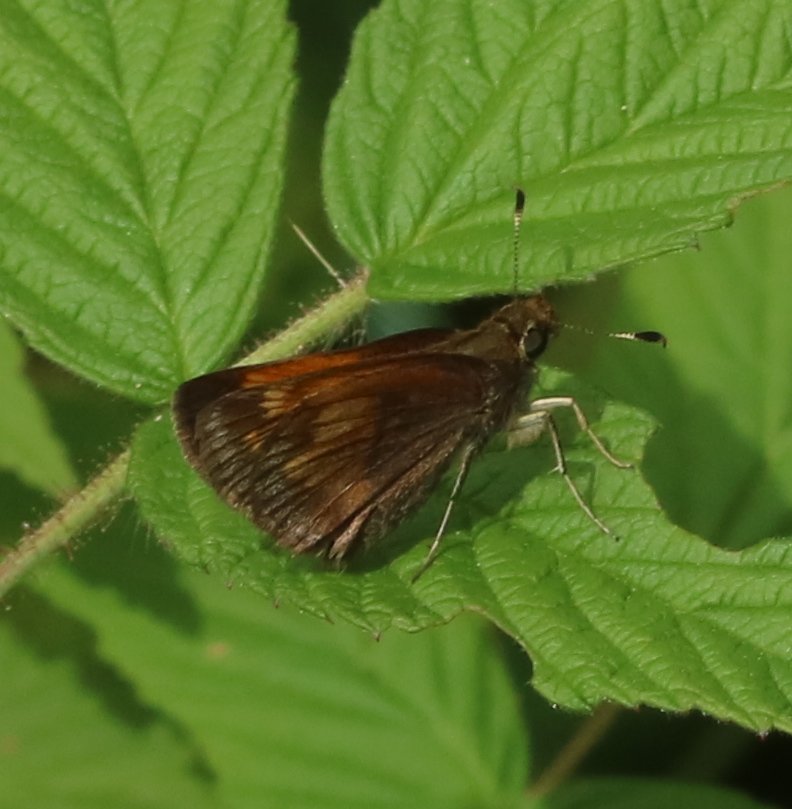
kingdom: Animalia
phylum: Arthropoda
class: Insecta
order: Lepidoptera
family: Hesperiidae
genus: Lon
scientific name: Lon hobomok
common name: Hobomok Skipper
